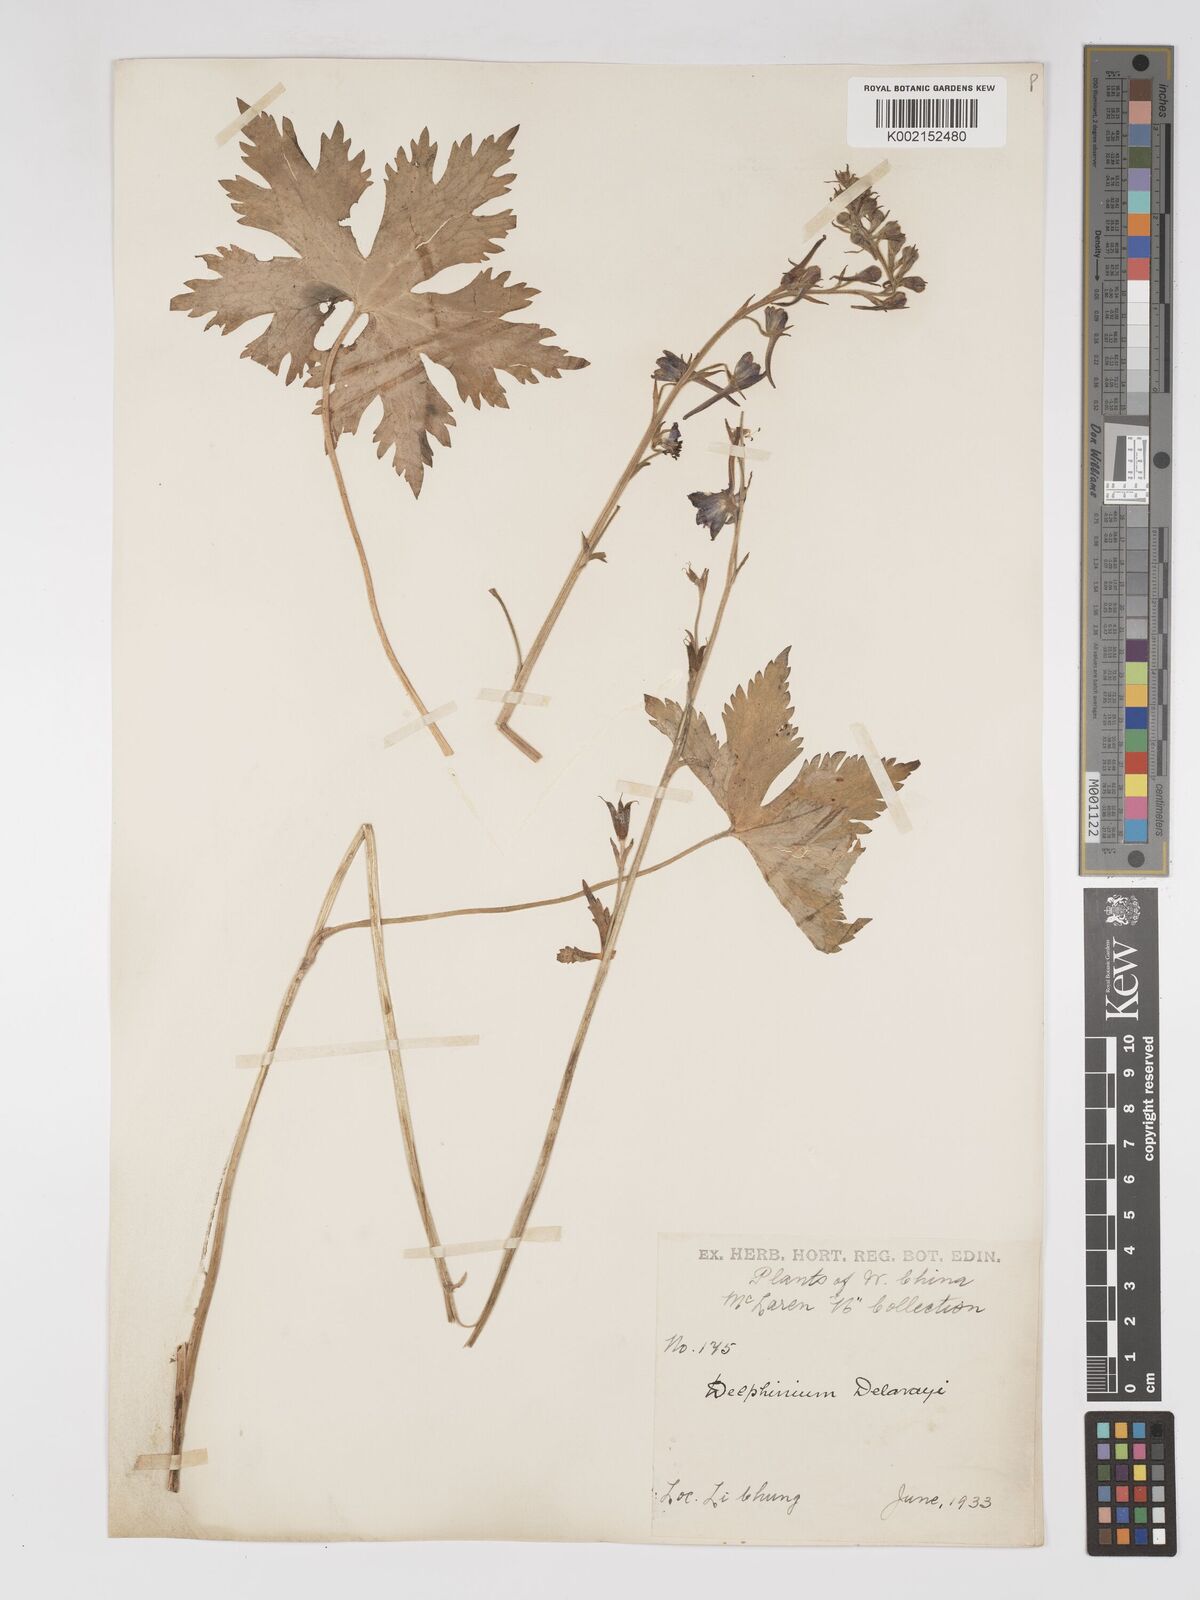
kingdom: Plantae
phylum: Tracheophyta
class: Magnoliopsida
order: Ranunculales
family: Ranunculaceae
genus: Delphinium
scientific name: Delphinium delavayi
